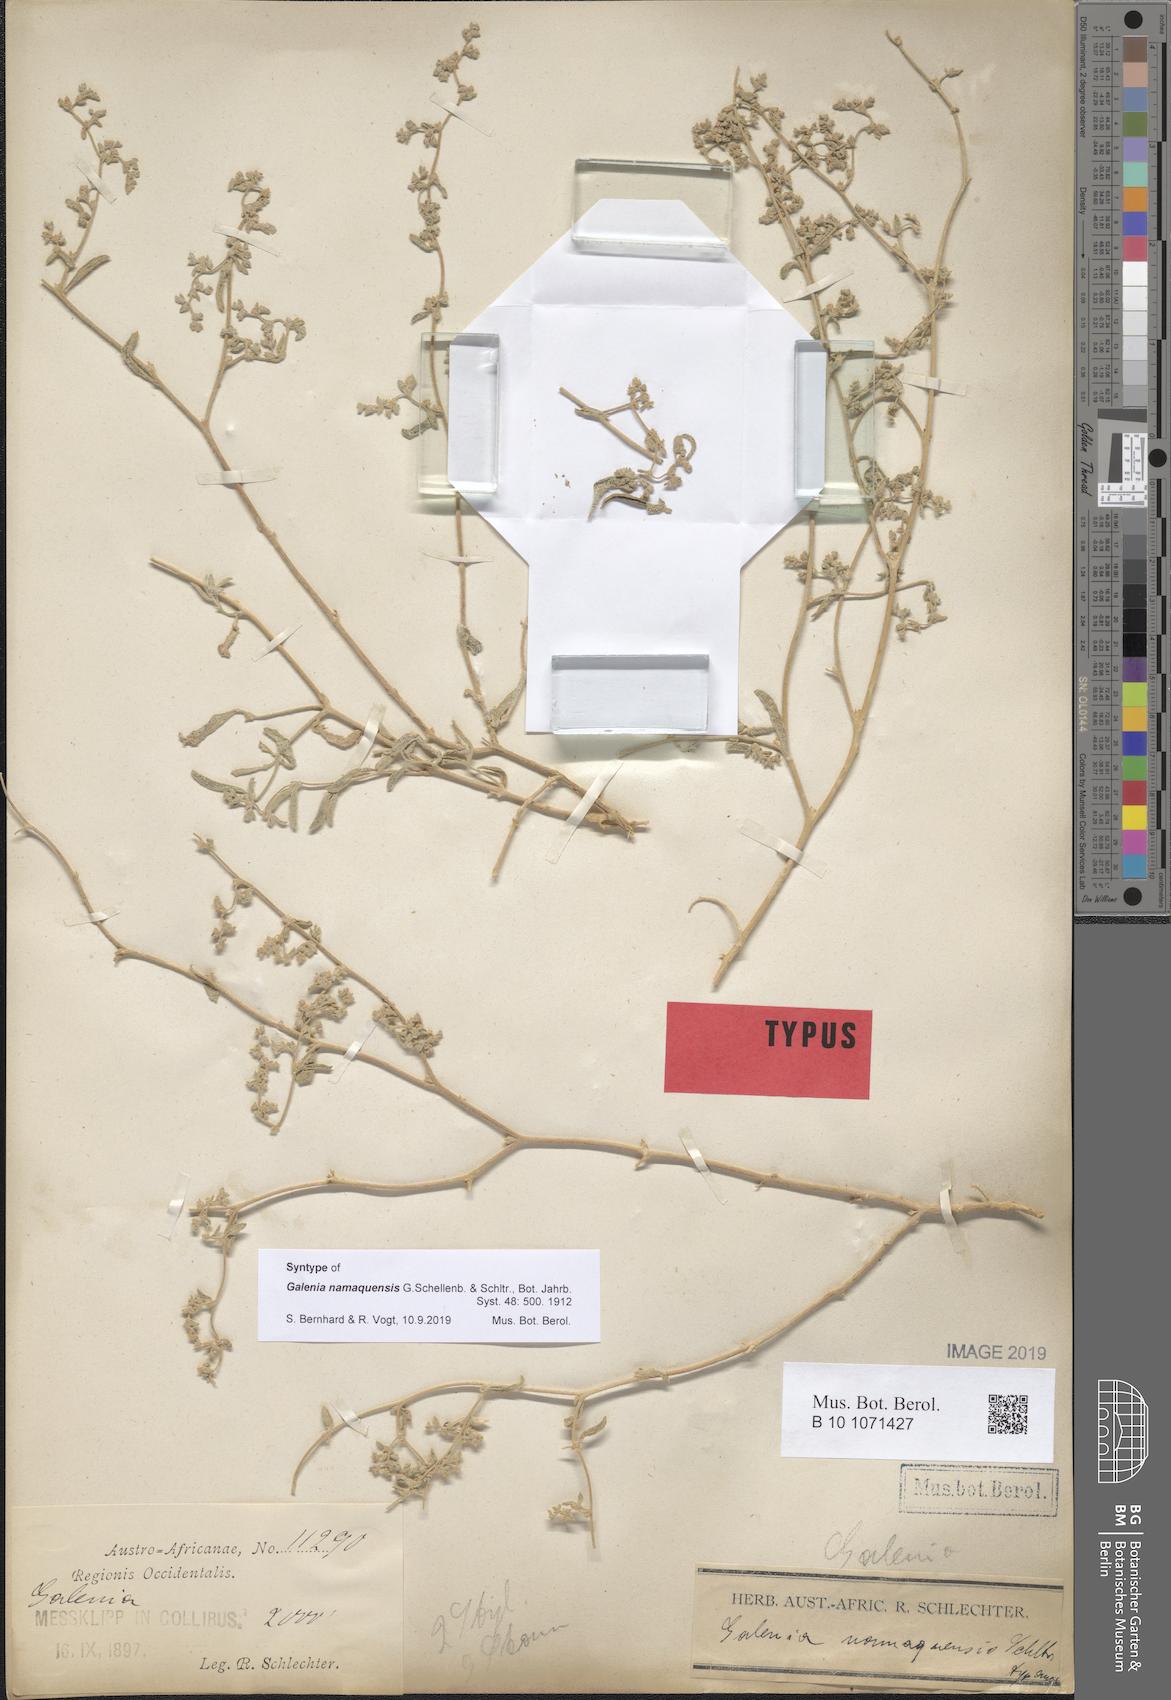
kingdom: Plantae
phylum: Tracheophyta
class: Magnoliopsida
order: Caryophyllales
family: Aizoaceae
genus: Aizoon
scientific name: Aizoon crystallinum
